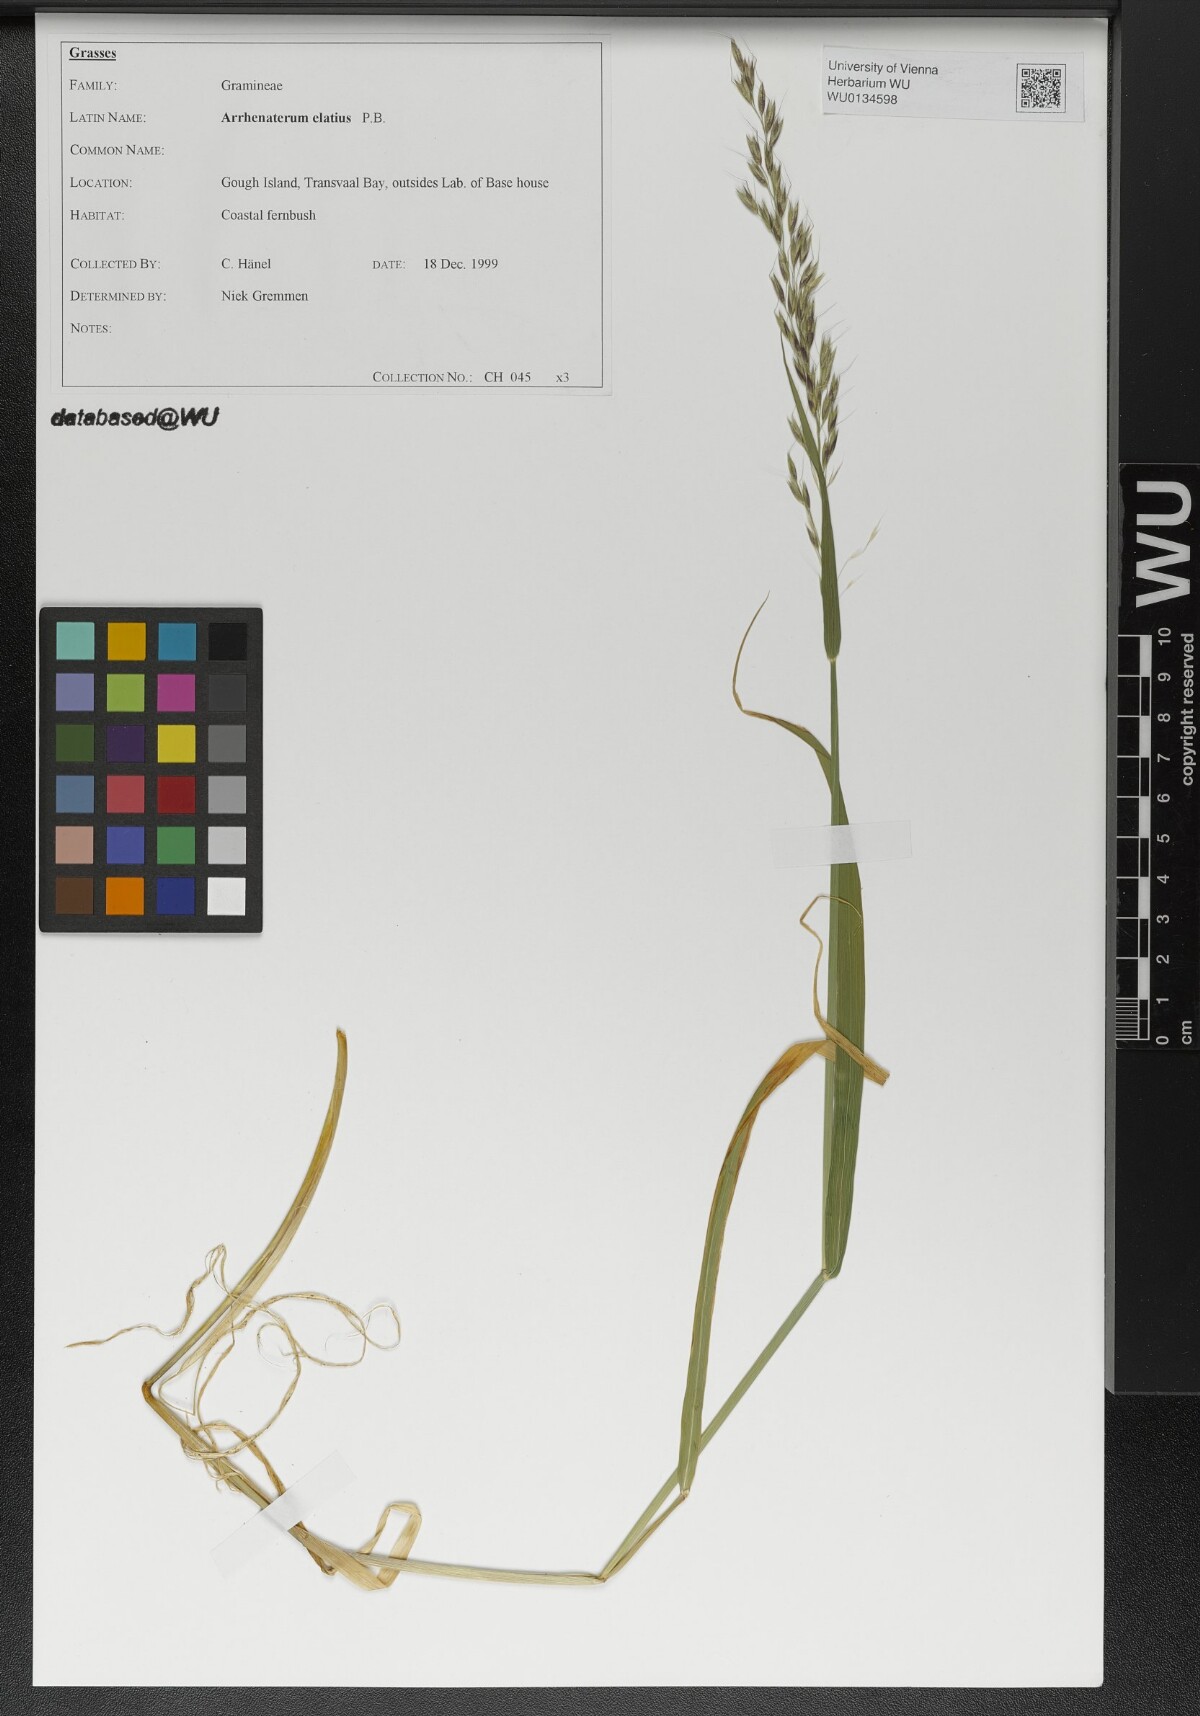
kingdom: Plantae
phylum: Tracheophyta
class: Liliopsida
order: Poales
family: Poaceae
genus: Arrhenatherum
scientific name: Arrhenatherum elatius
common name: Tall oatgrass
